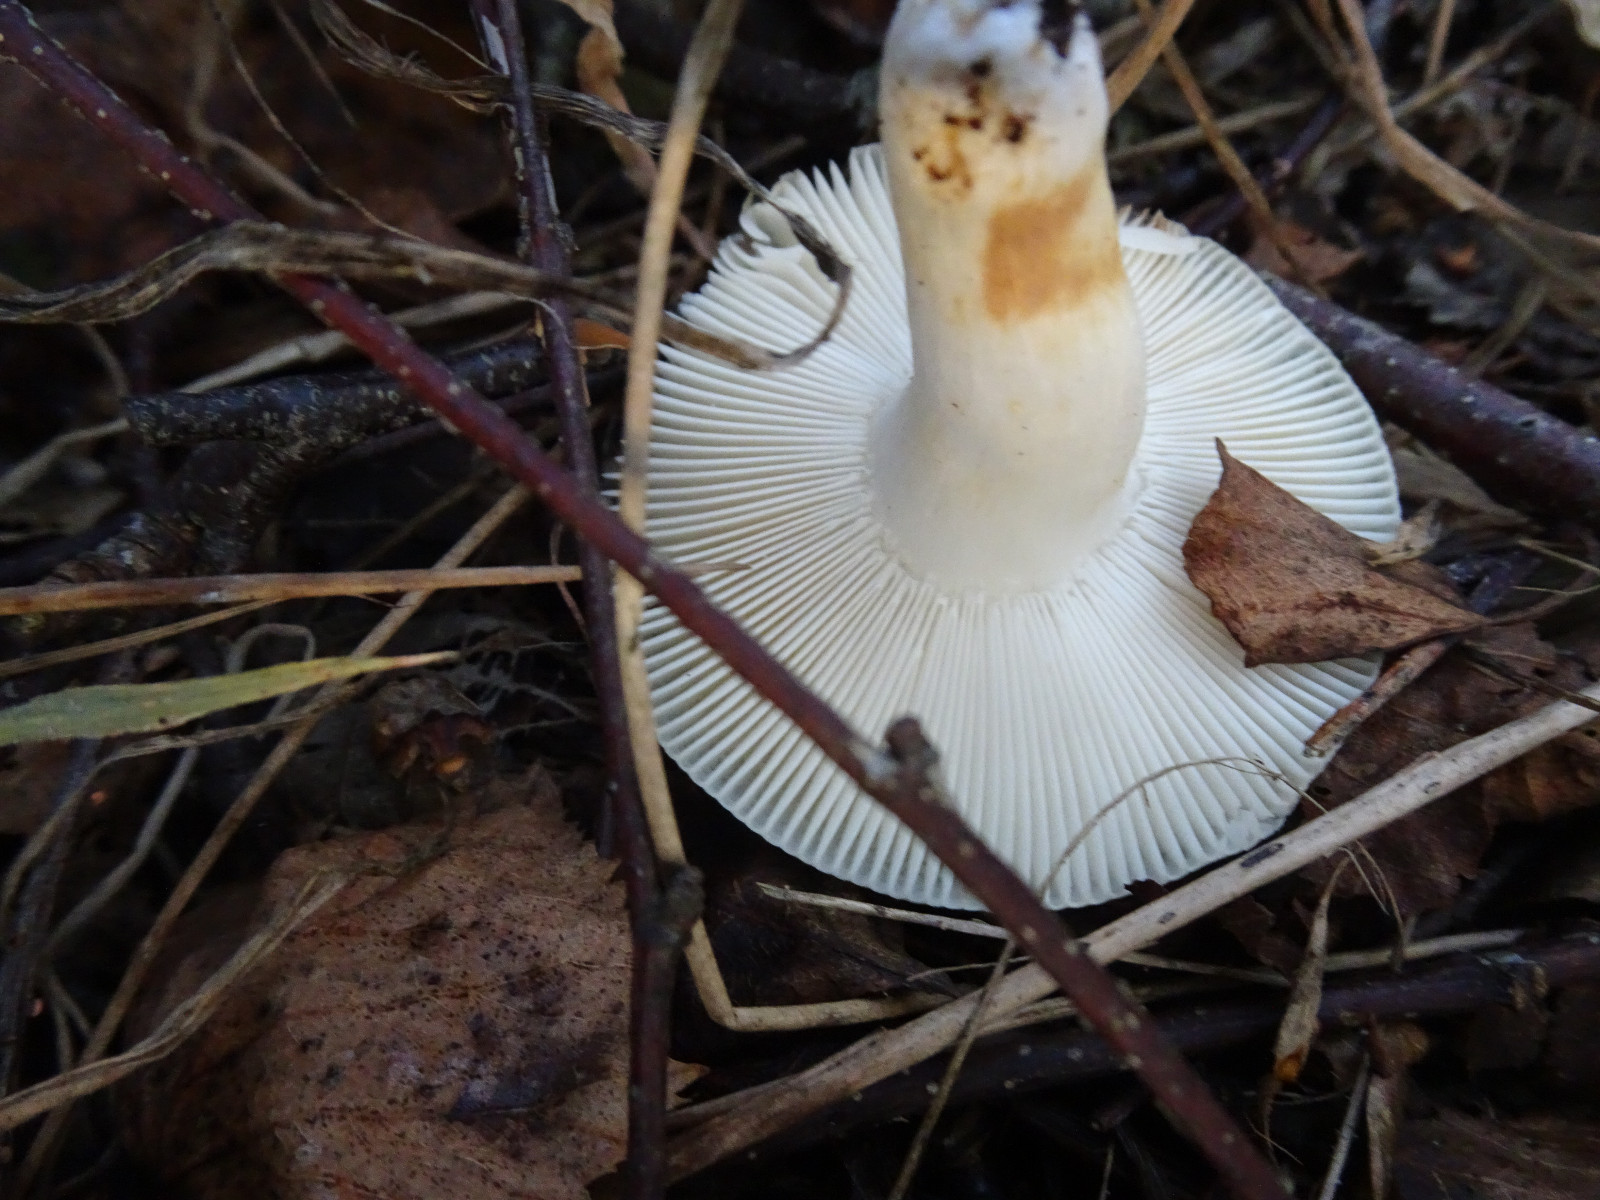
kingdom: Fungi
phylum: Basidiomycota
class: Agaricomycetes
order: Russulales
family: Russulaceae
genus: Russula
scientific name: Russula aeruginea
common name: græsgrøn skørhat
